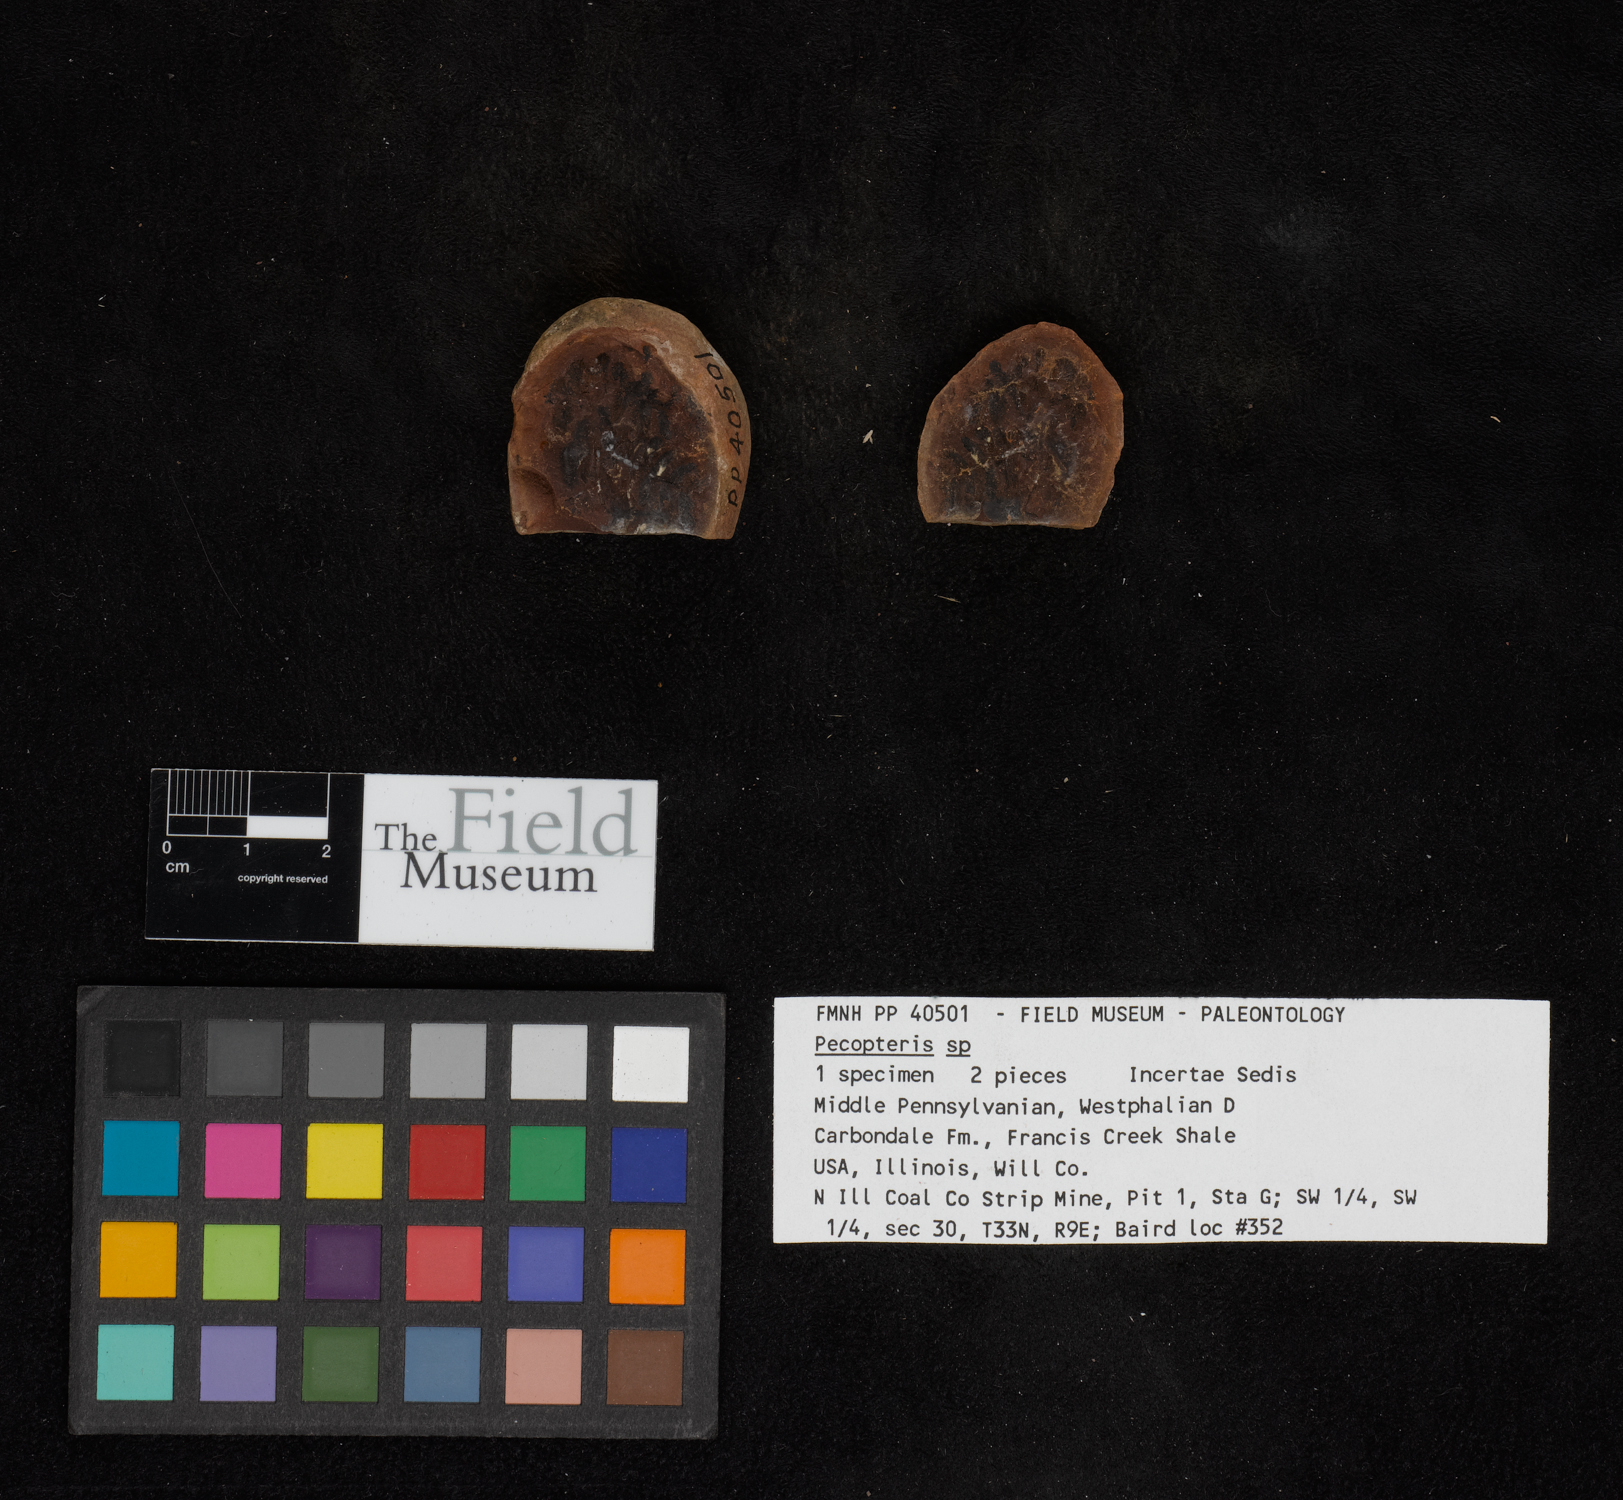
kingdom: Plantae
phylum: Tracheophyta
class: Polypodiopsida
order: Marattiales
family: Asterothecaceae
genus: Pecopteris
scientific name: Pecopteris
